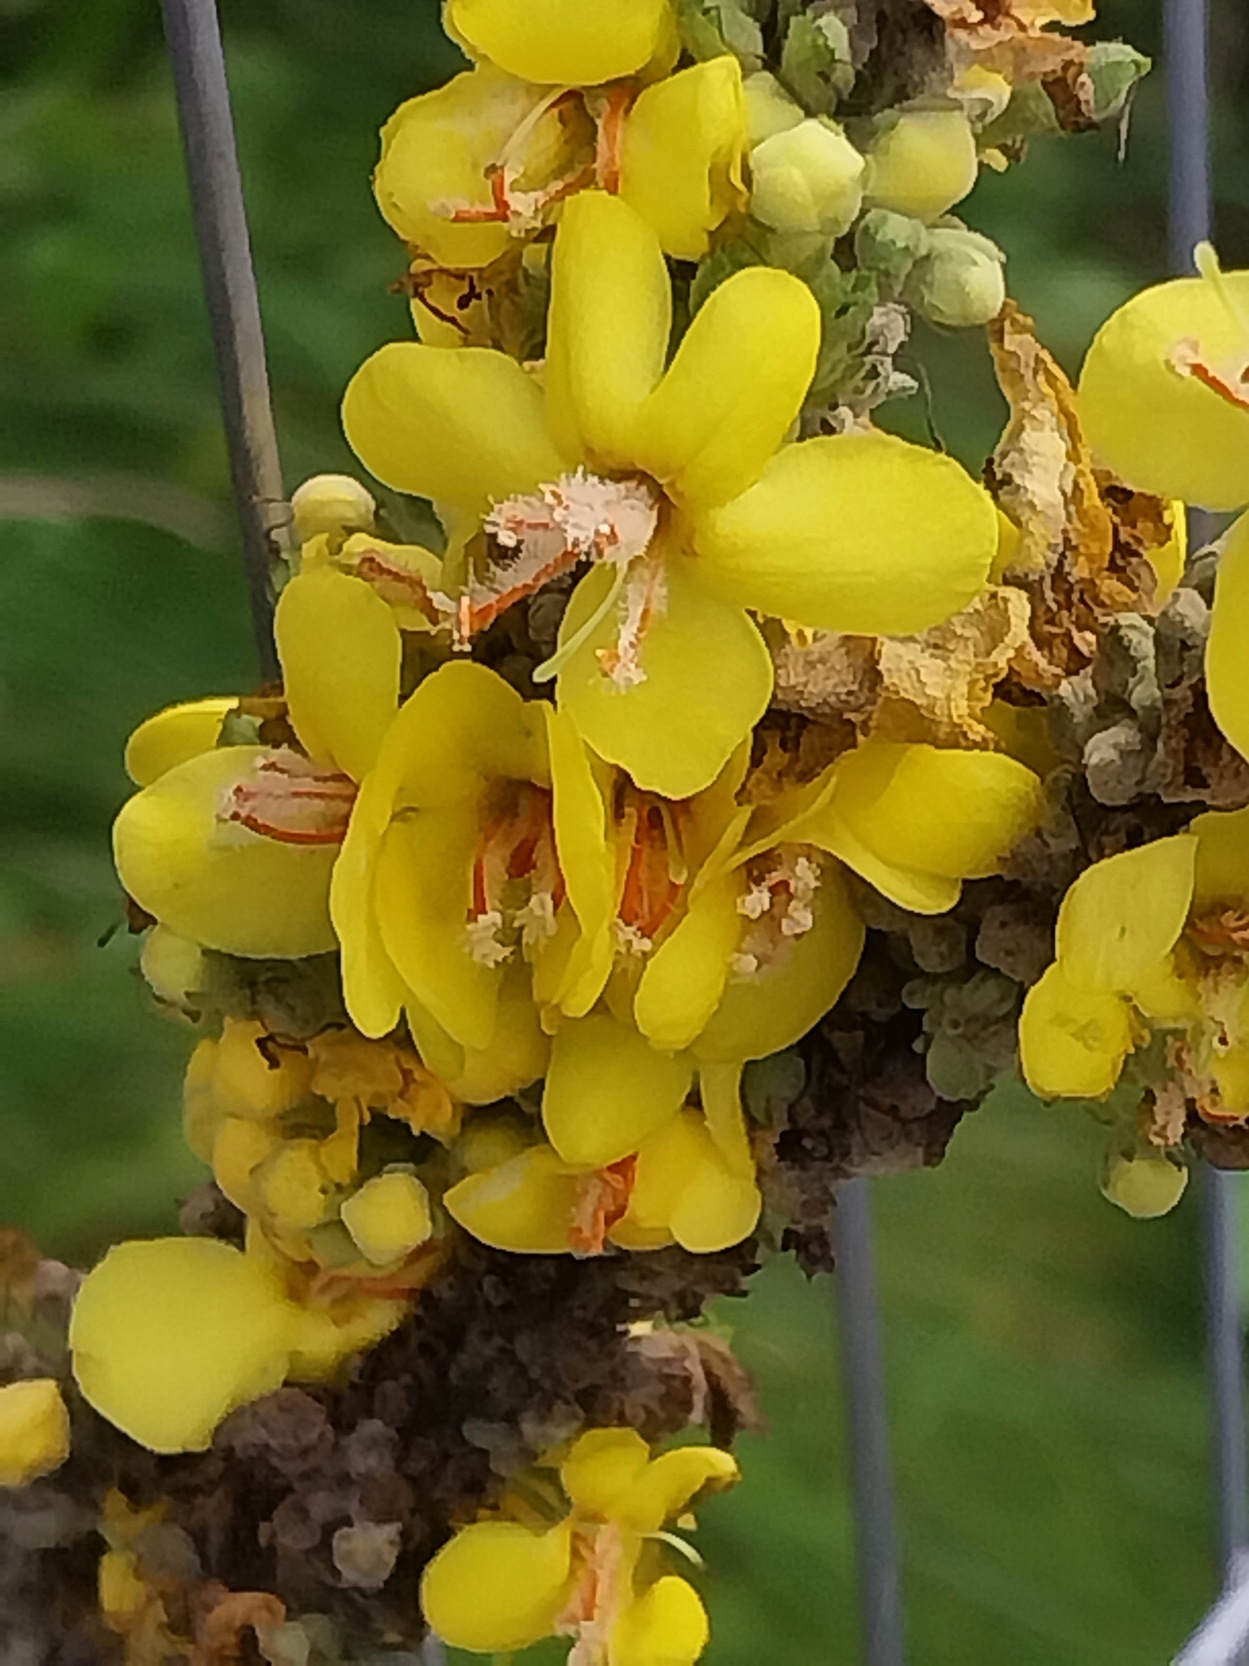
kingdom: Plantae
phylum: Tracheophyta
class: Magnoliopsida
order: Lamiales
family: Scrophulariaceae
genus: Verbascum
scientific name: Verbascum speciosum
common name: Kandelaber-kongelys
